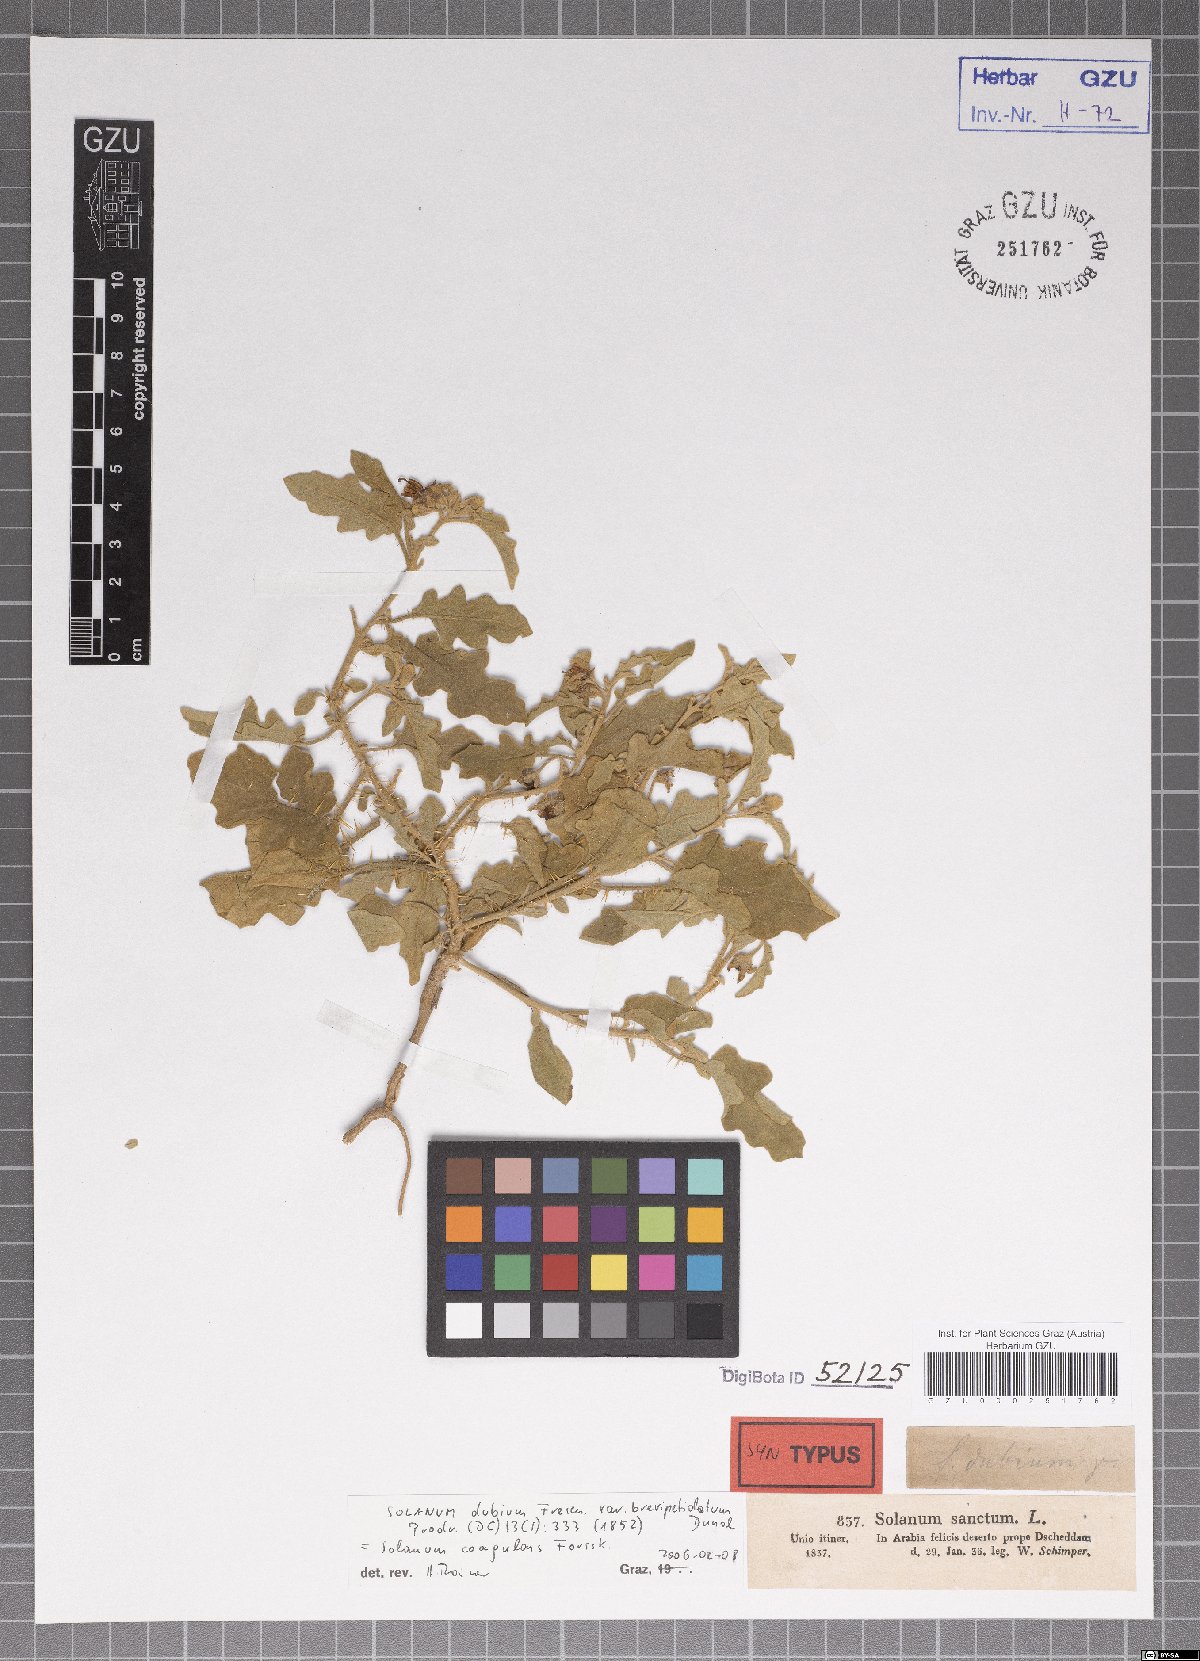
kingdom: Plantae
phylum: Tracheophyta
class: Magnoliopsida
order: Solanales
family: Solanaceae
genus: Solanum
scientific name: Solanum coagulans
